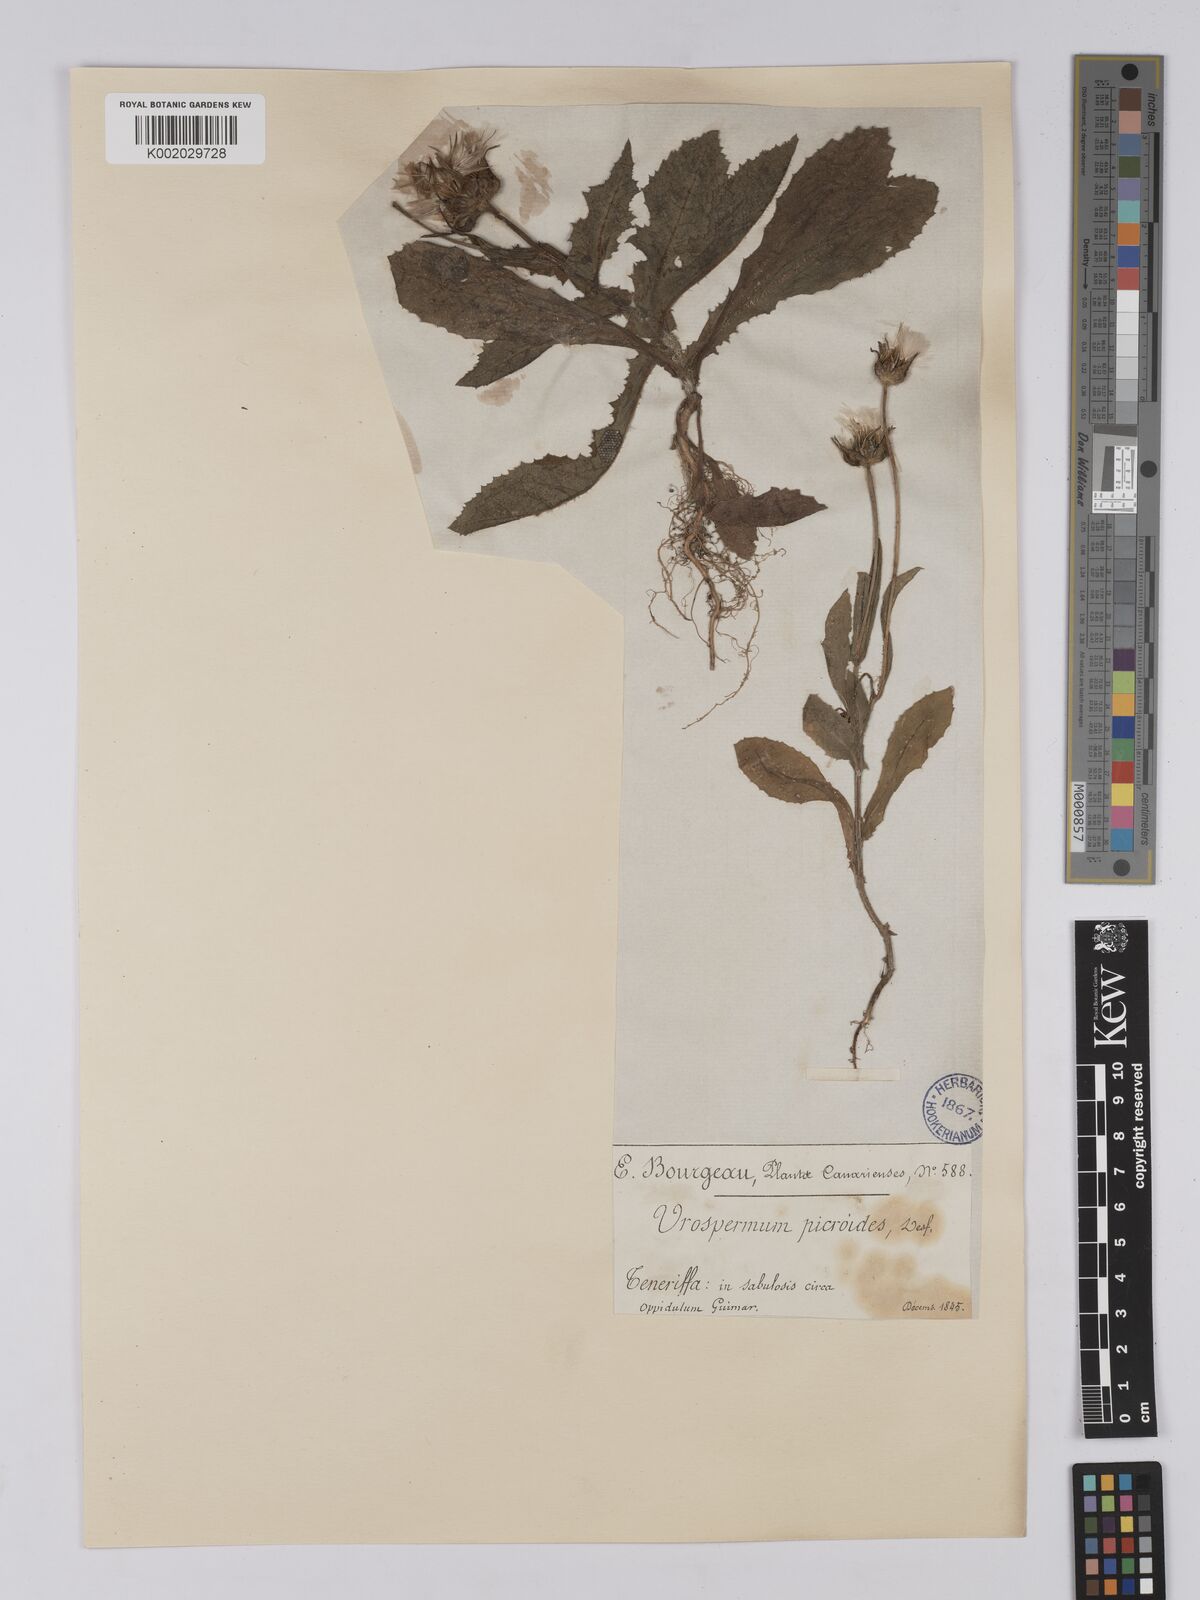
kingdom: Plantae
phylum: Tracheophyta
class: Magnoliopsida
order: Asterales
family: Asteraceae
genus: Urospermum
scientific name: Urospermum picroides
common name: False hawkbit
